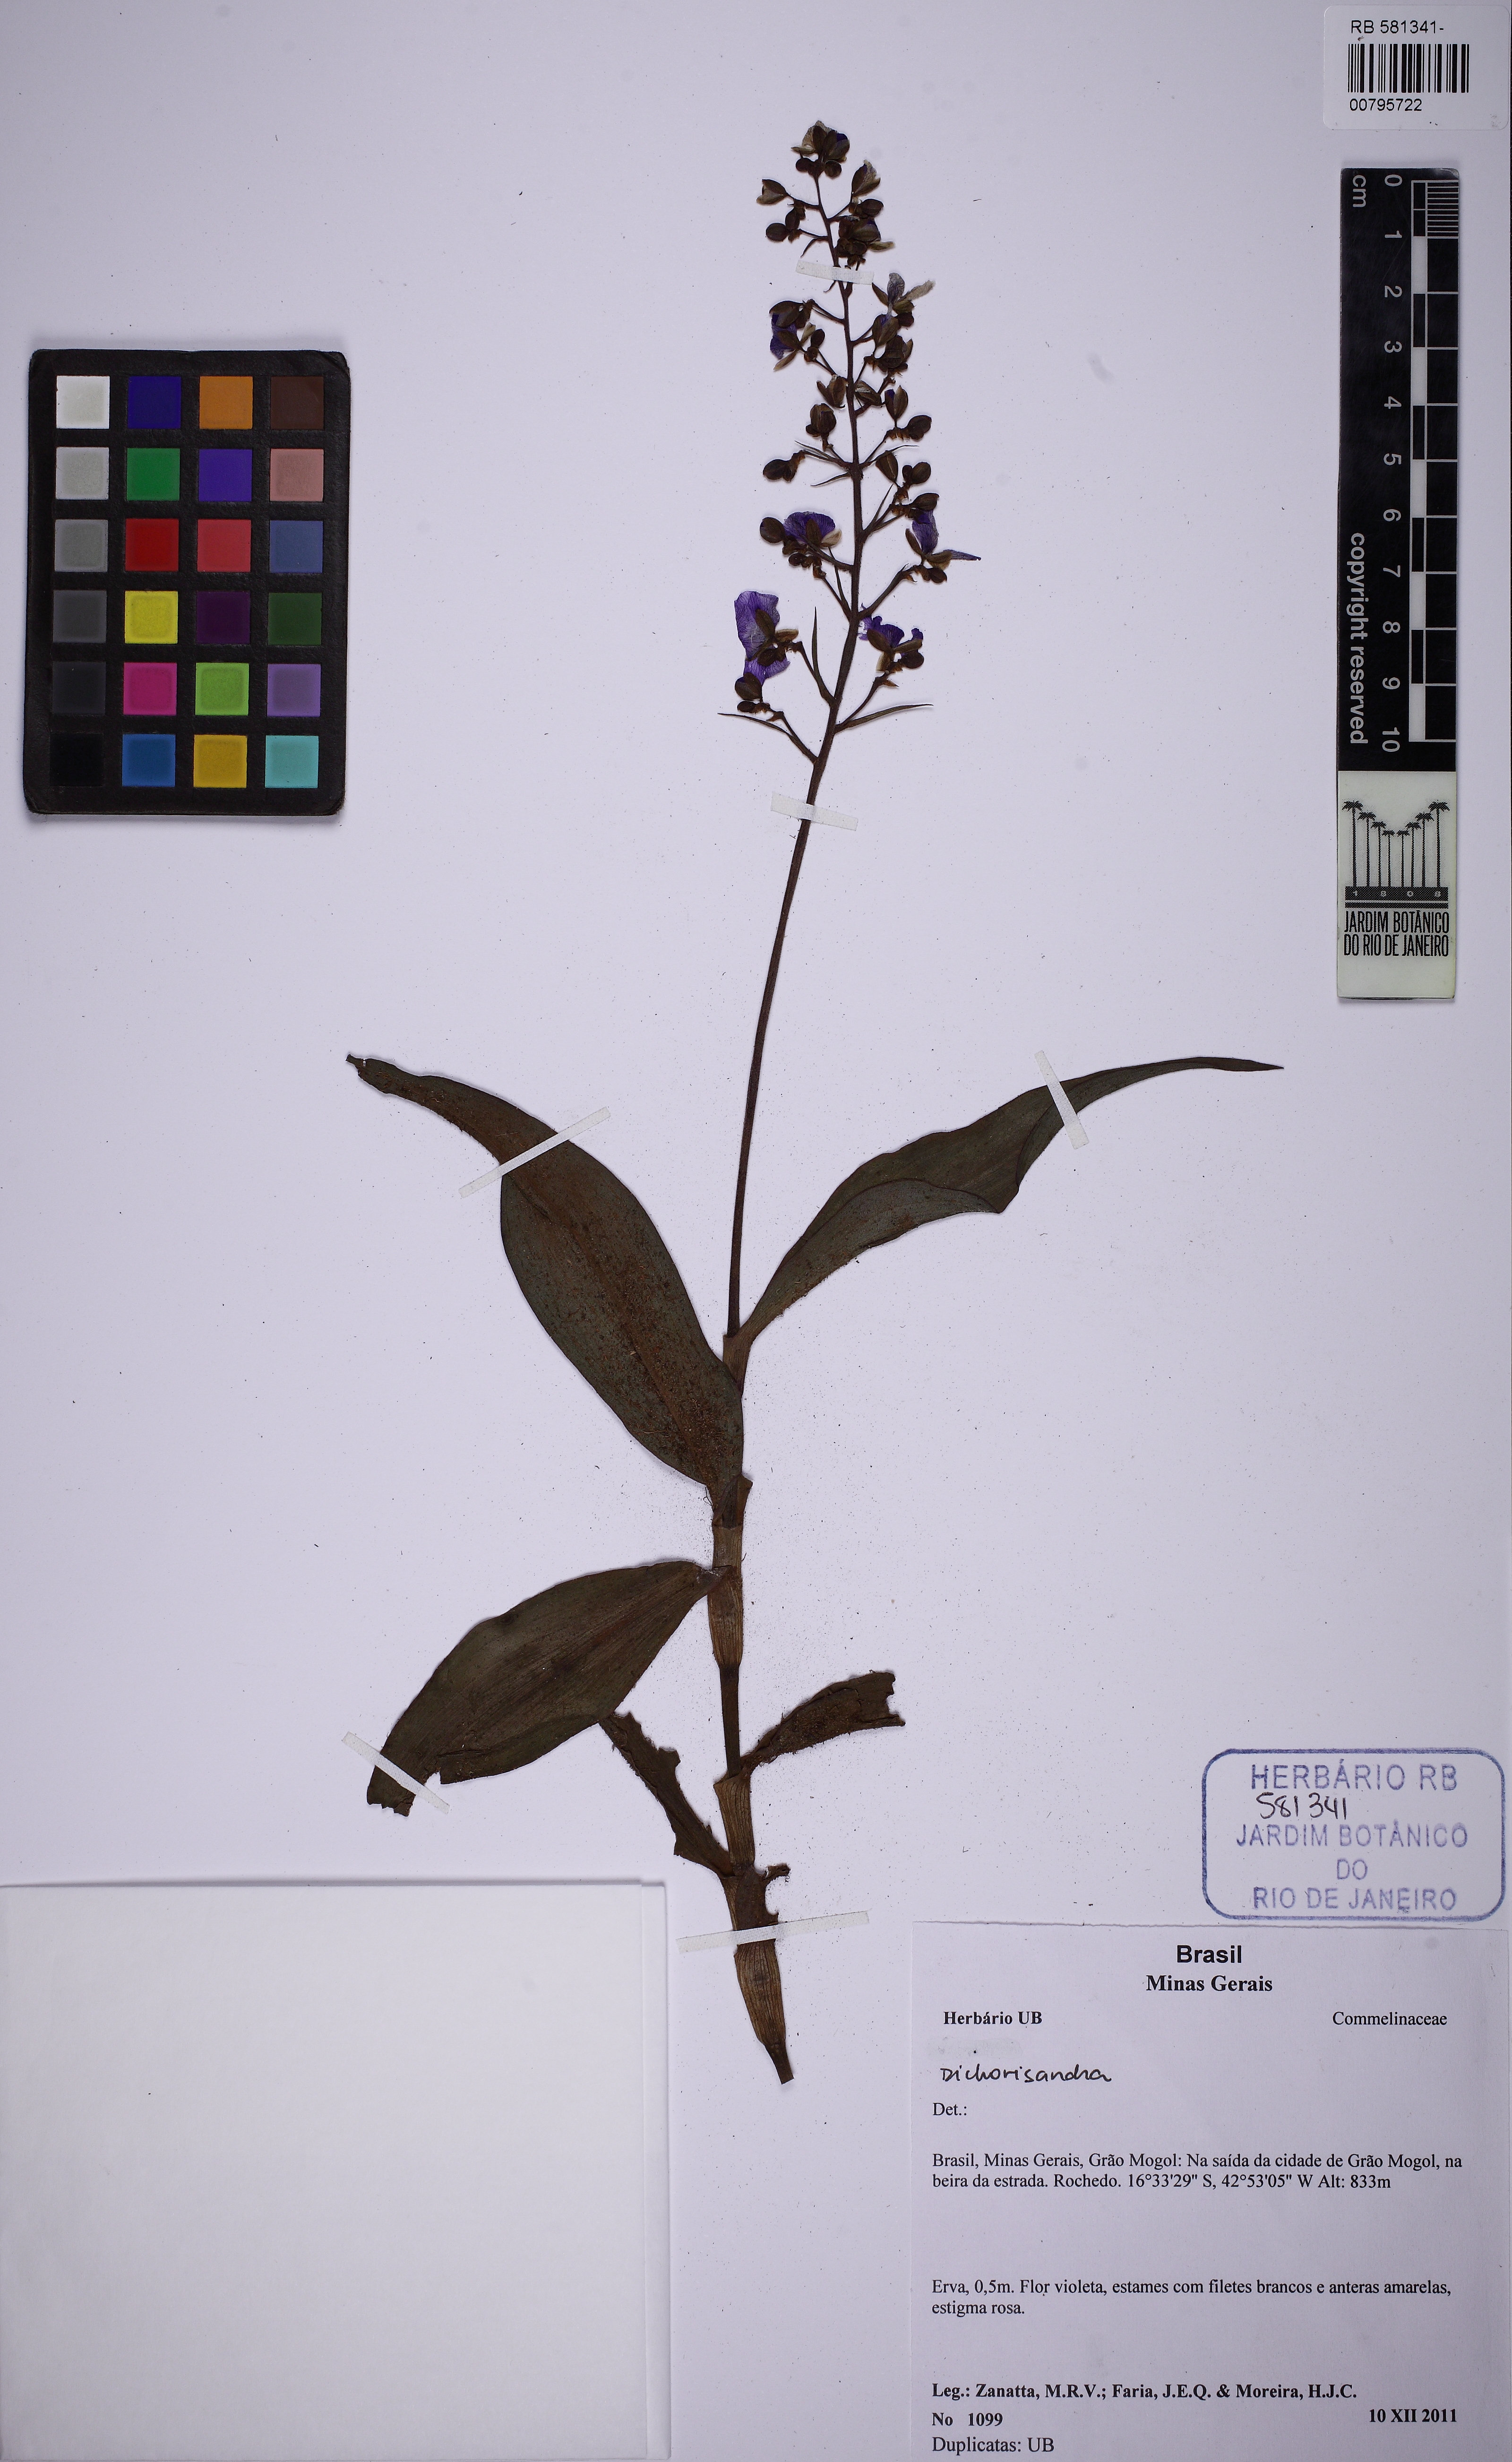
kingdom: Plantae
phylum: Tracheophyta
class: Liliopsida
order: Commelinales
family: Commelinaceae
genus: Dichorisandra
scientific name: Dichorisandra glaziovii
